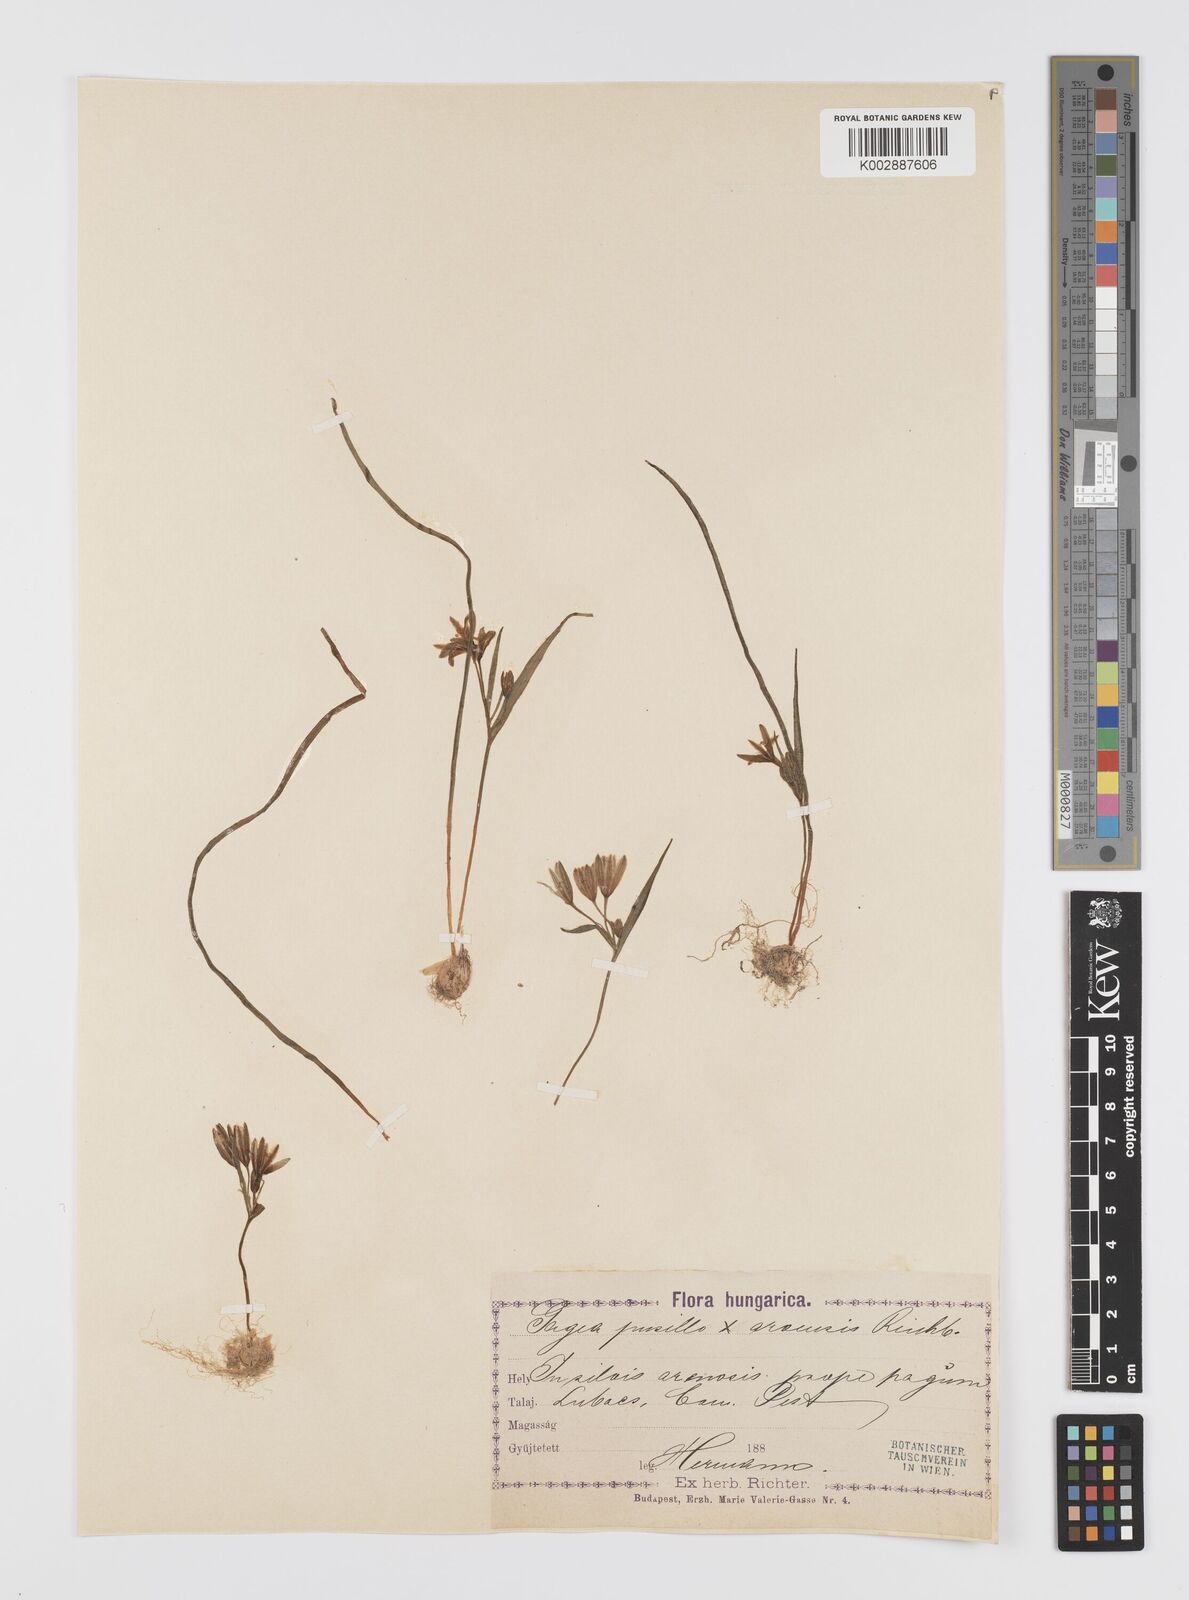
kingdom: Plantae
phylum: Tracheophyta
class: Liliopsida
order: Liliales
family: Liliaceae
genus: Gagea
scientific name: Gagea pusilla
